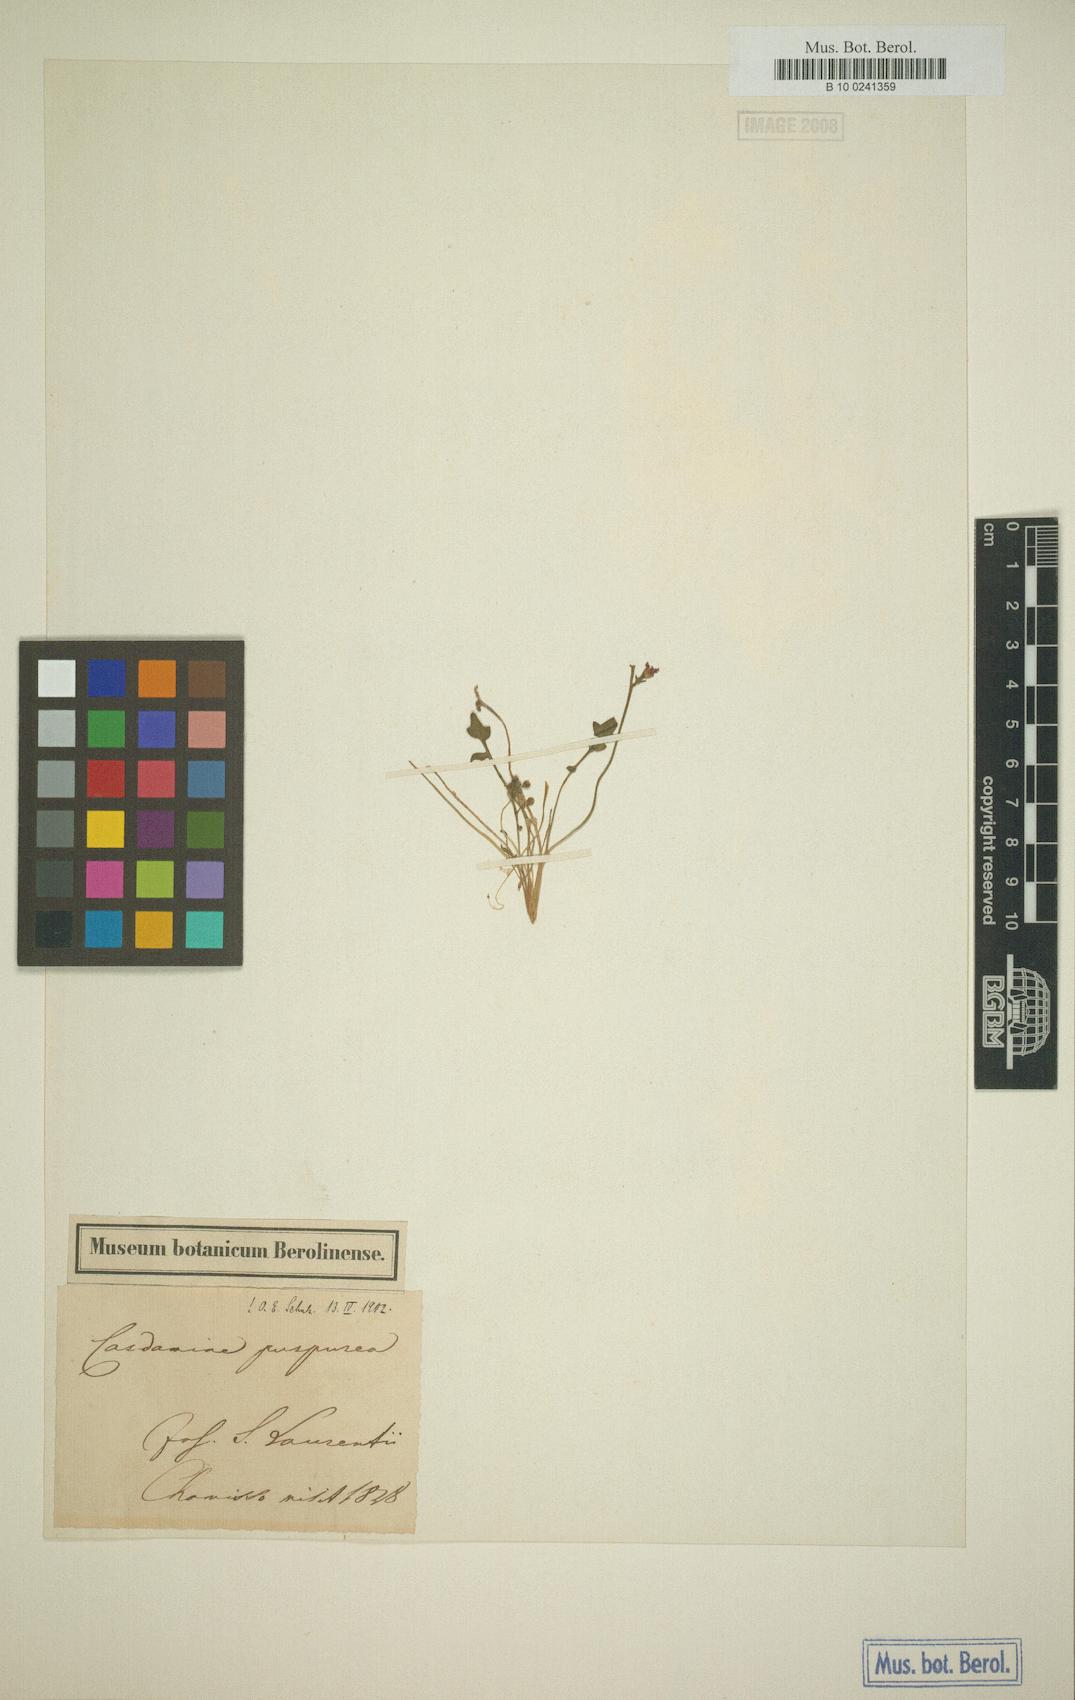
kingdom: Plantae
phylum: Tracheophyta
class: Magnoliopsida
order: Brassicales
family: Brassicaceae
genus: Cardamine
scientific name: Cardamine purpurea
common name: Purple bittercress
